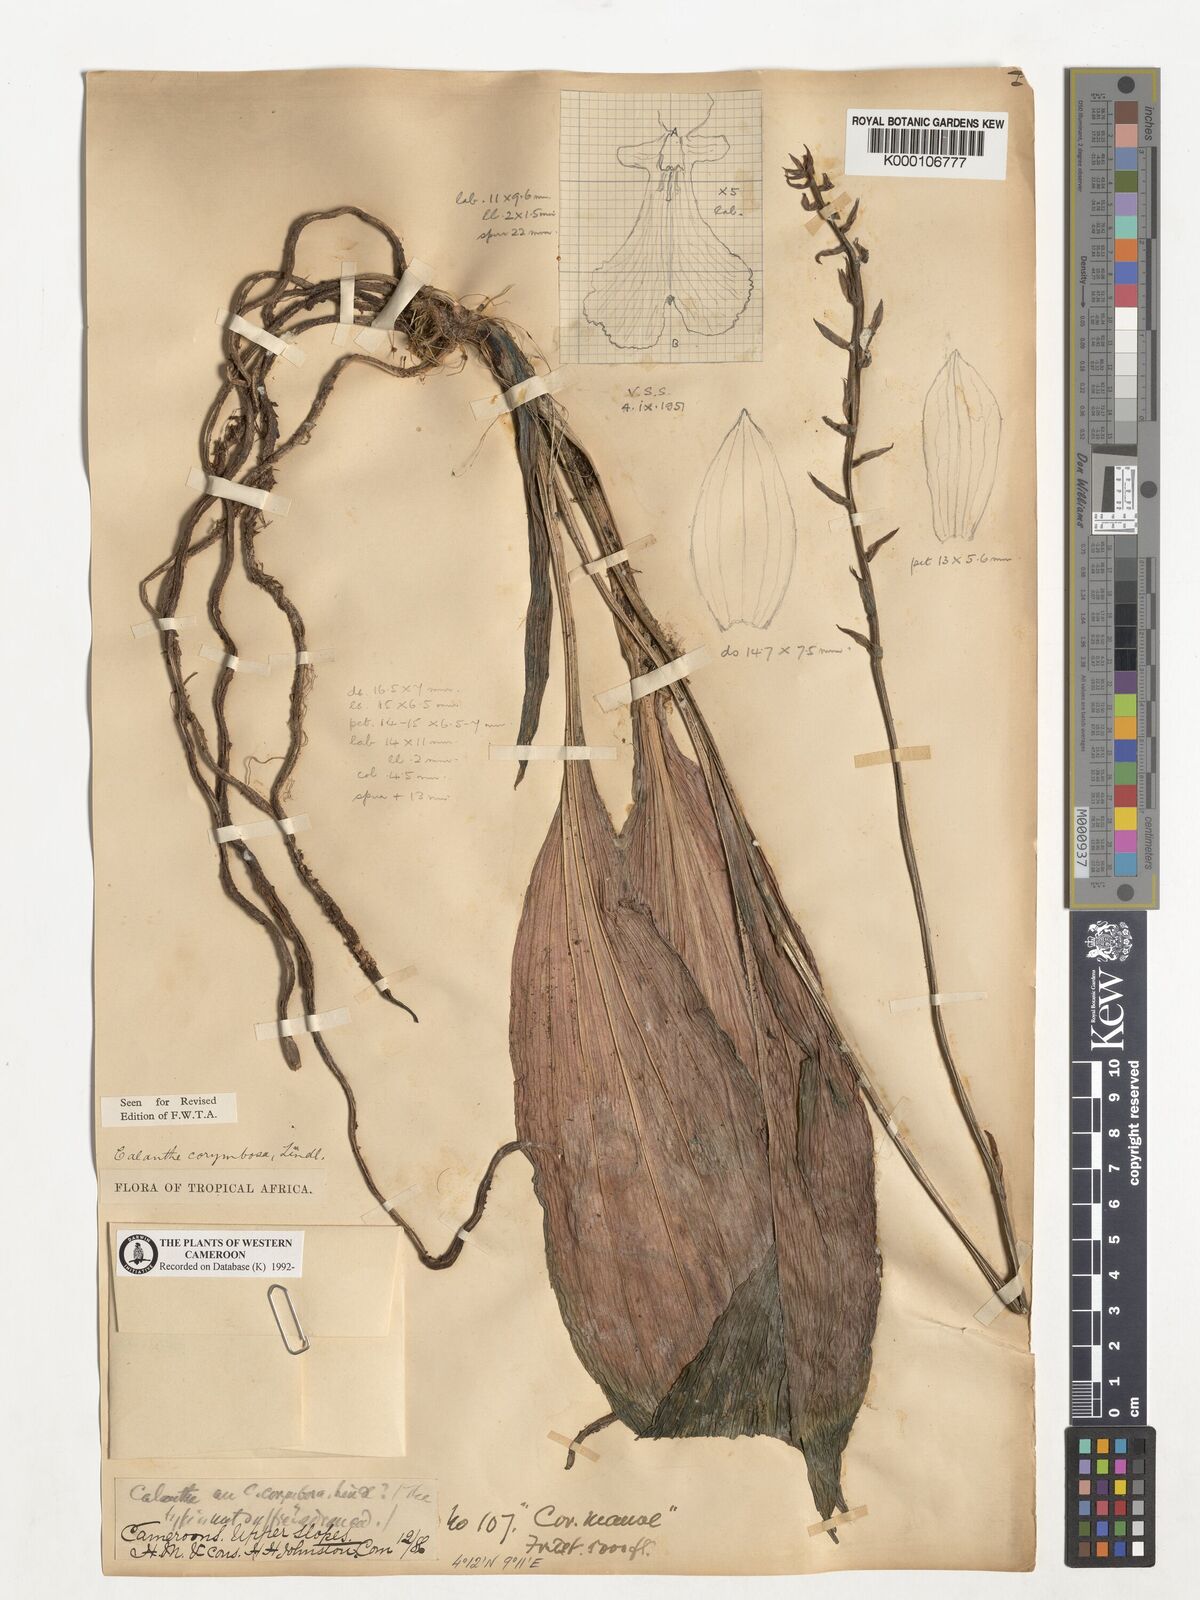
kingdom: Plantae
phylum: Tracheophyta
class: Liliopsida
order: Asparagales
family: Orchidaceae
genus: Calanthe
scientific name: Calanthe sylvatica
